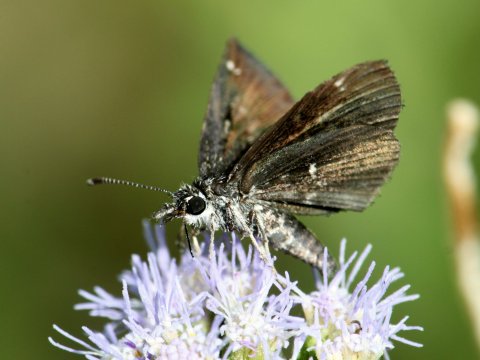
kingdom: Animalia
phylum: Arthropoda
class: Insecta
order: Lepidoptera
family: Hesperiidae
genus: Pholisora
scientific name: Pholisora catullus
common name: Common Sootywing
